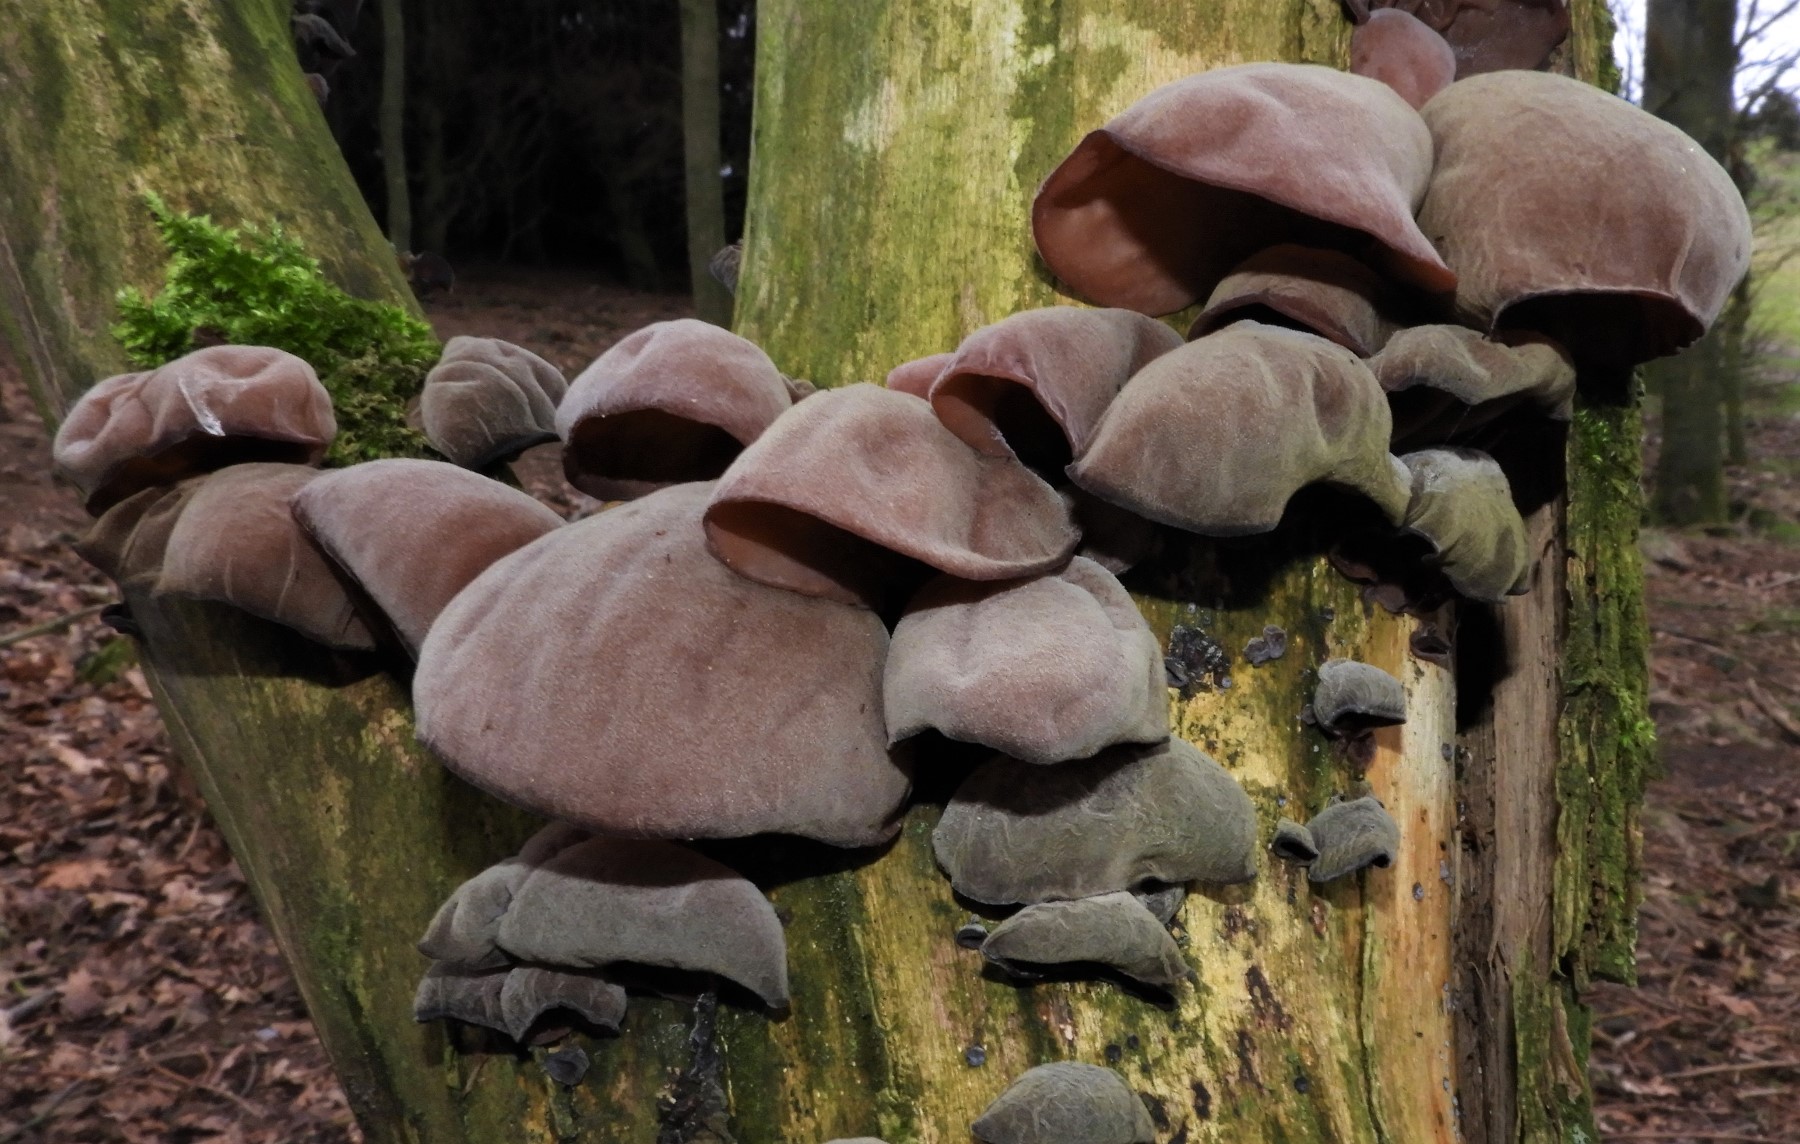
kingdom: Fungi
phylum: Basidiomycota
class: Agaricomycetes
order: Auriculariales
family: Auriculariaceae
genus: Auricularia
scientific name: Auricularia auricula-judae
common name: almindelig judasøre
